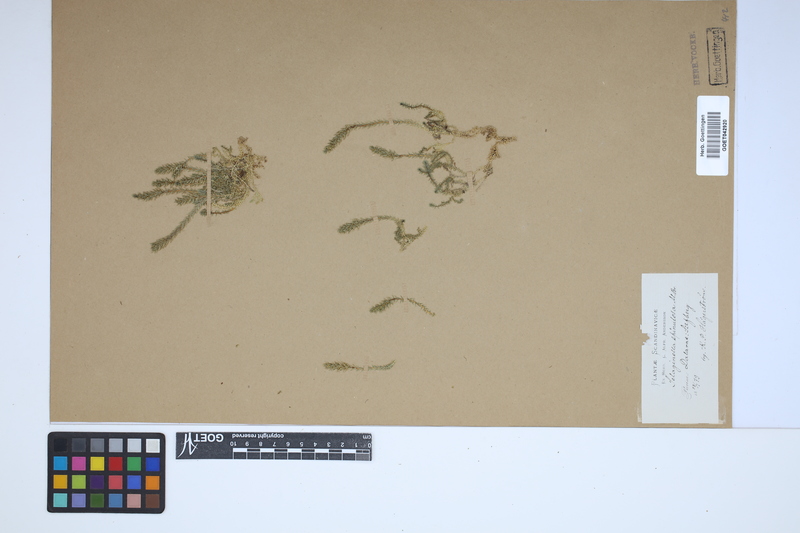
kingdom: Plantae
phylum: Tracheophyta
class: Lycopodiopsida
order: Selaginellales
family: Selaginellaceae
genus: Selaginella
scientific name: Selaginella selaginoides
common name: Prickly mountain-moss
